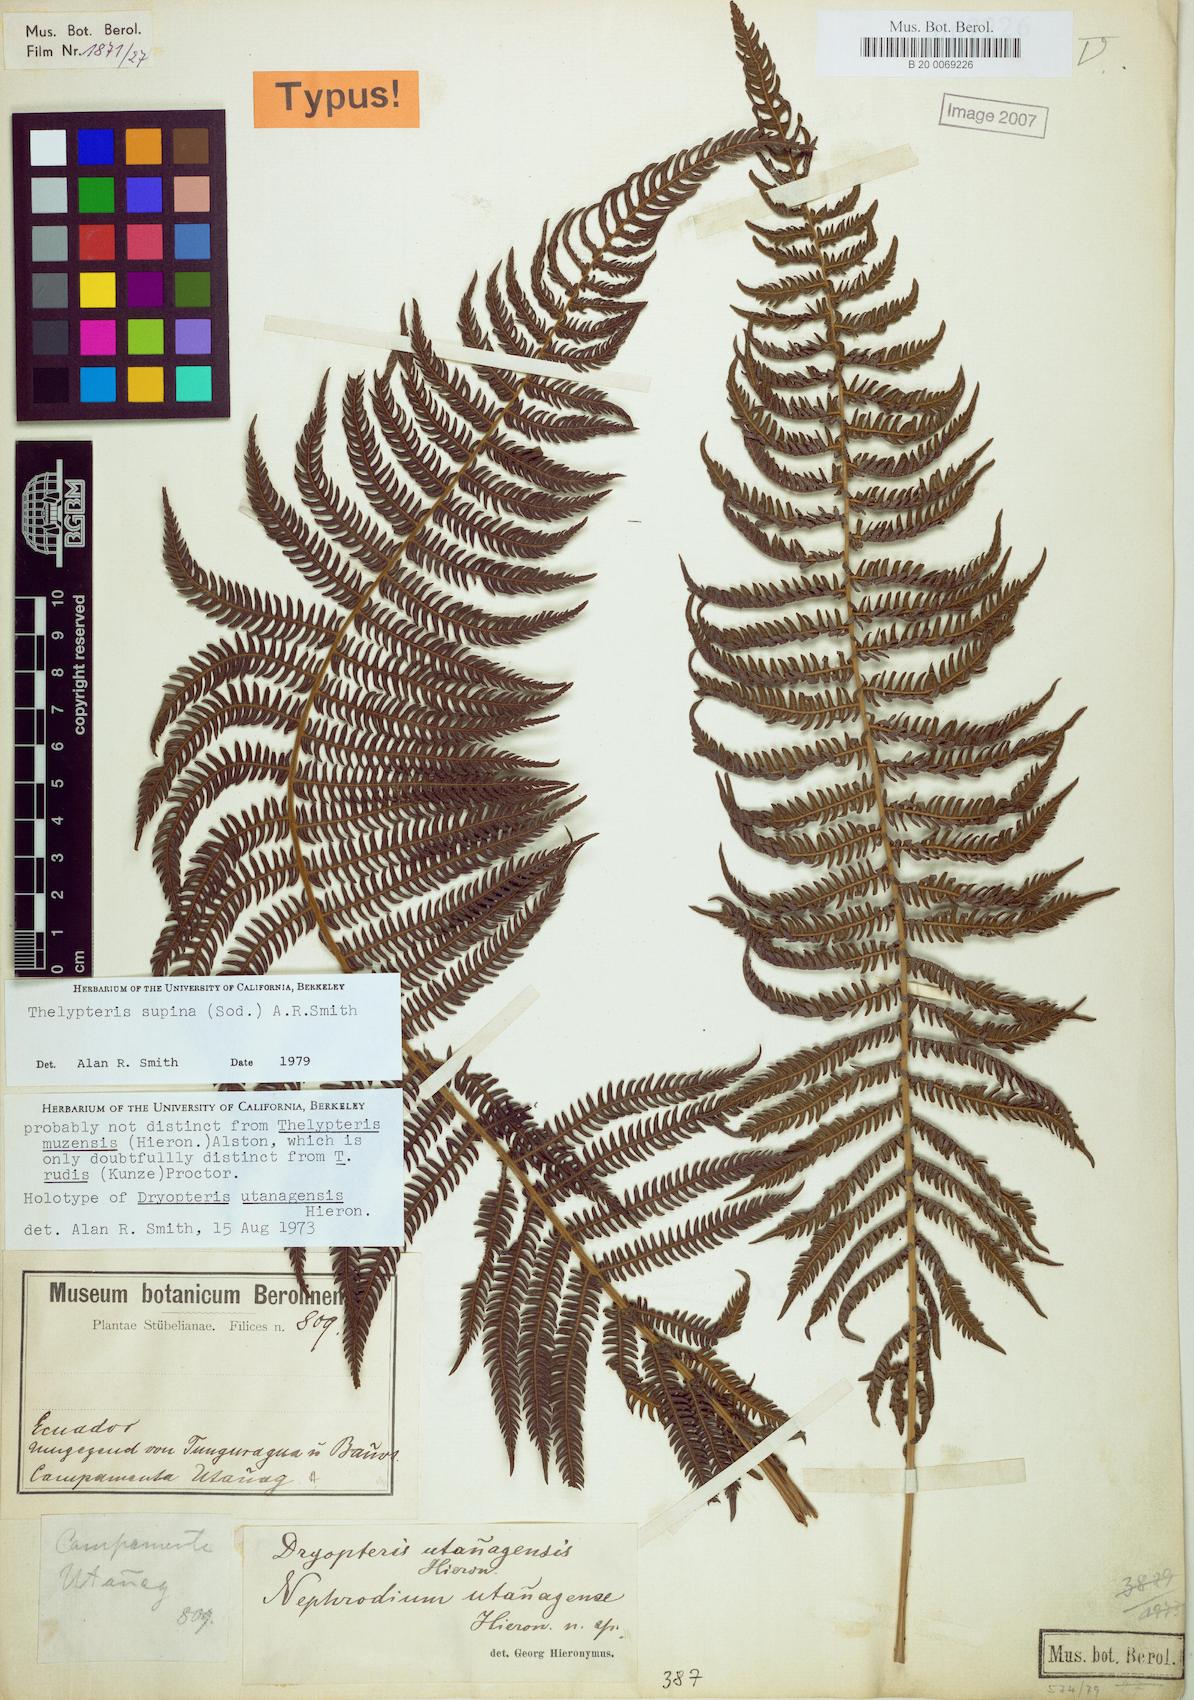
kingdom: Plantae
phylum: Tracheophyta
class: Polypodiopsida
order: Polypodiales
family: Thelypteridaceae
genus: Amauropelta
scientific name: Amauropelta supina
